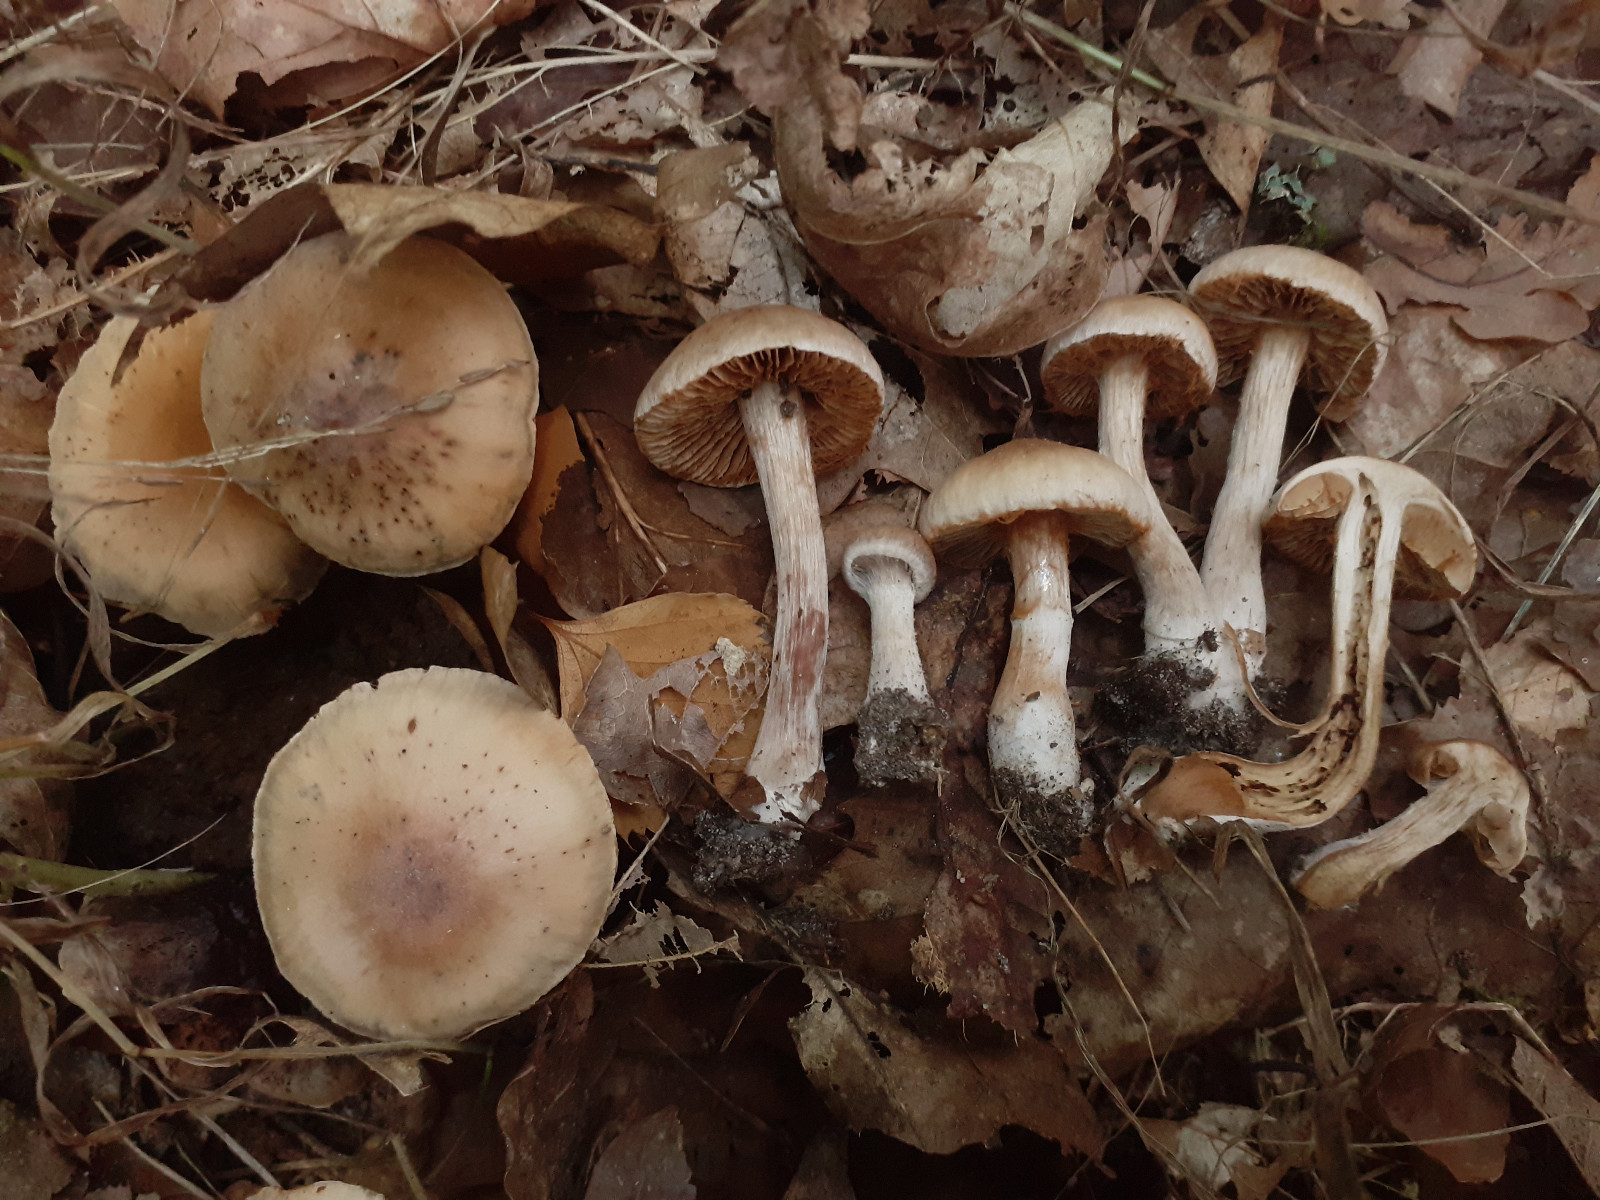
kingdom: Fungi
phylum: Basidiomycota
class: Agaricomycetes
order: Agaricales
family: Cortinariaceae
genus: Cortinarius
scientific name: Cortinarius epipurrus
